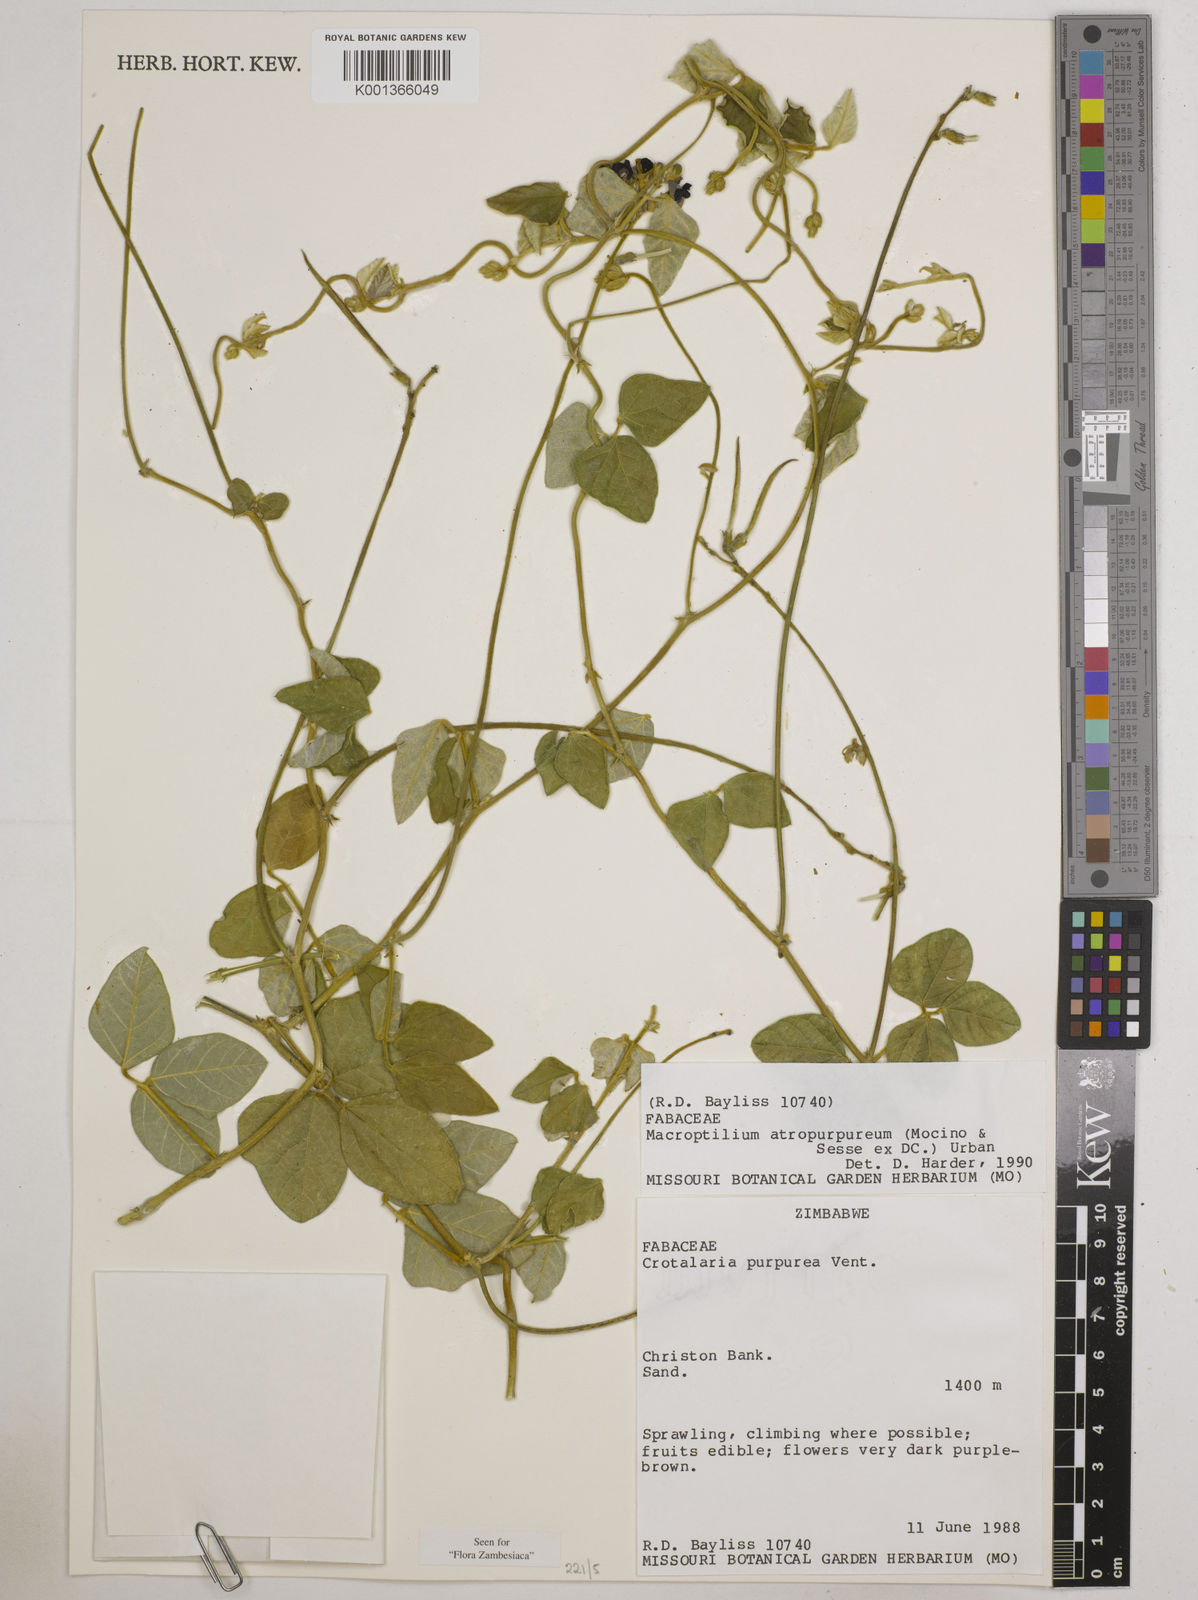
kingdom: Plantae
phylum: Tracheophyta
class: Magnoliopsida
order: Fabales
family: Fabaceae
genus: Macroptilium
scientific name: Macroptilium atropurpureum
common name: Purple bushbean
